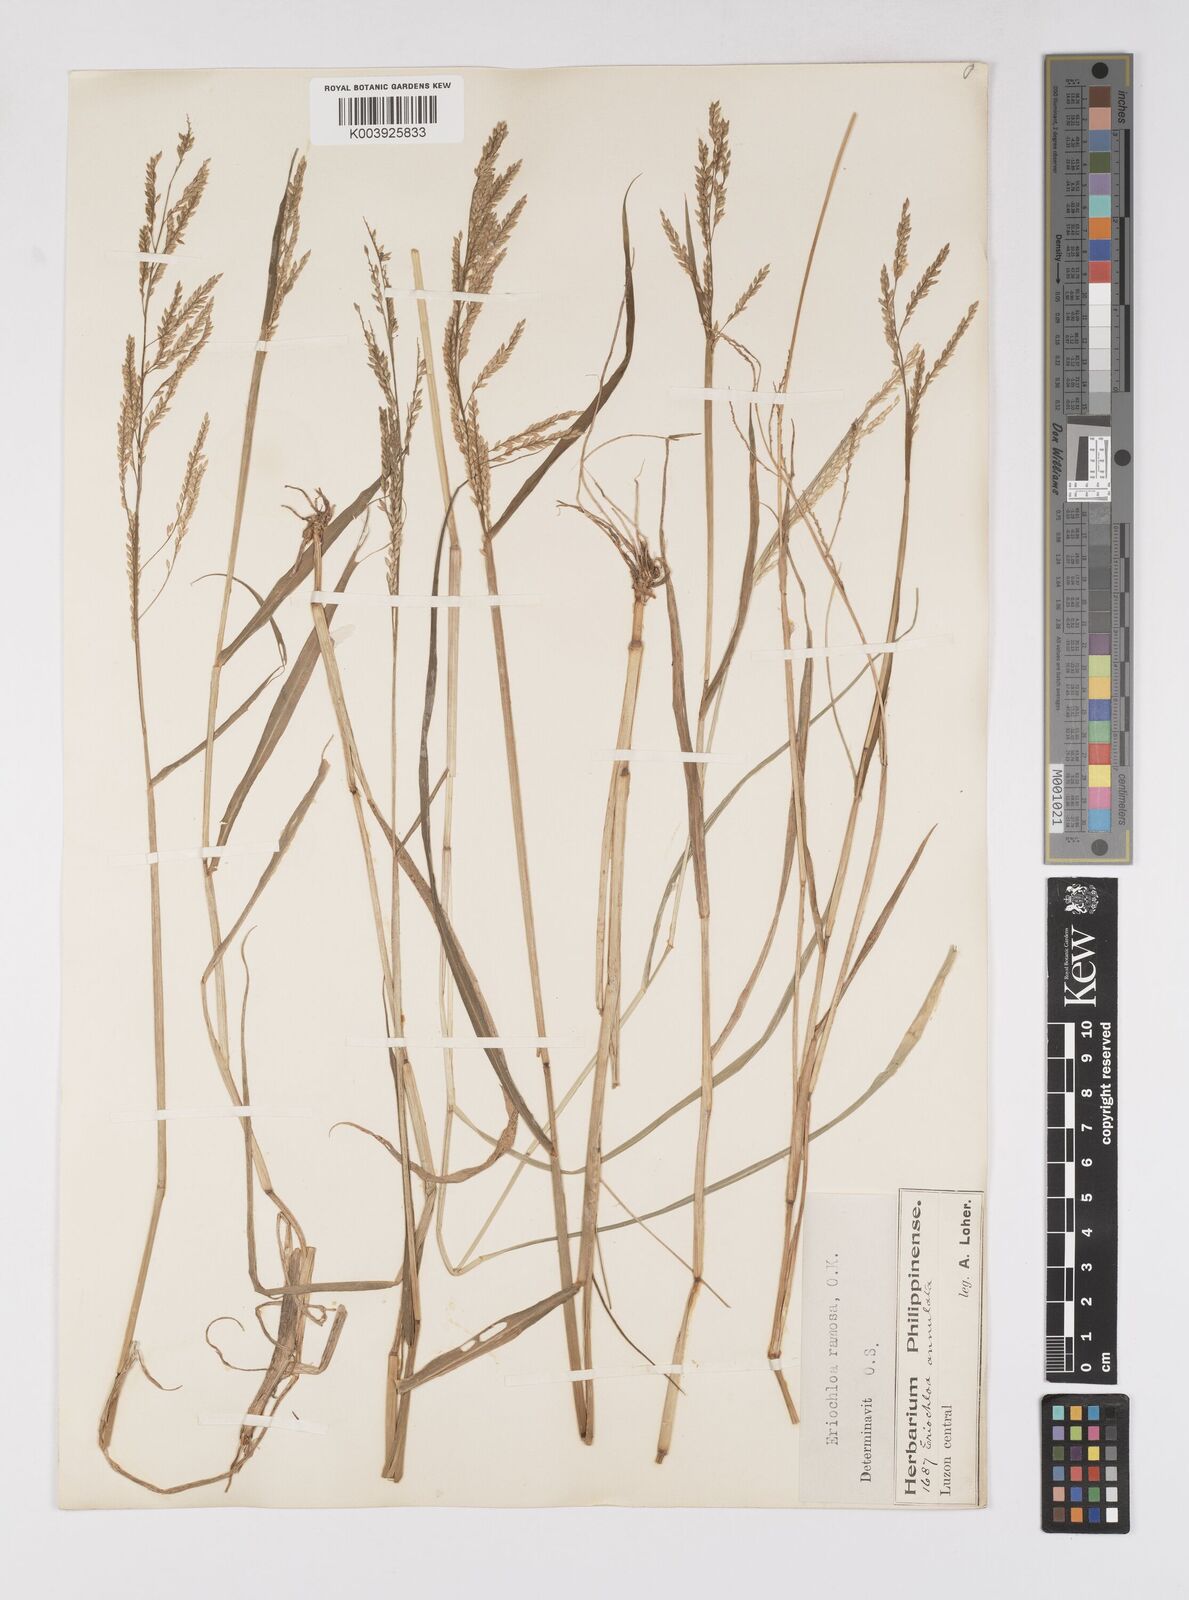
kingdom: Plantae
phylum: Tracheophyta
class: Liliopsida
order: Poales
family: Poaceae
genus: Eriochloa
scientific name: Eriochloa procera
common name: Spring grass
